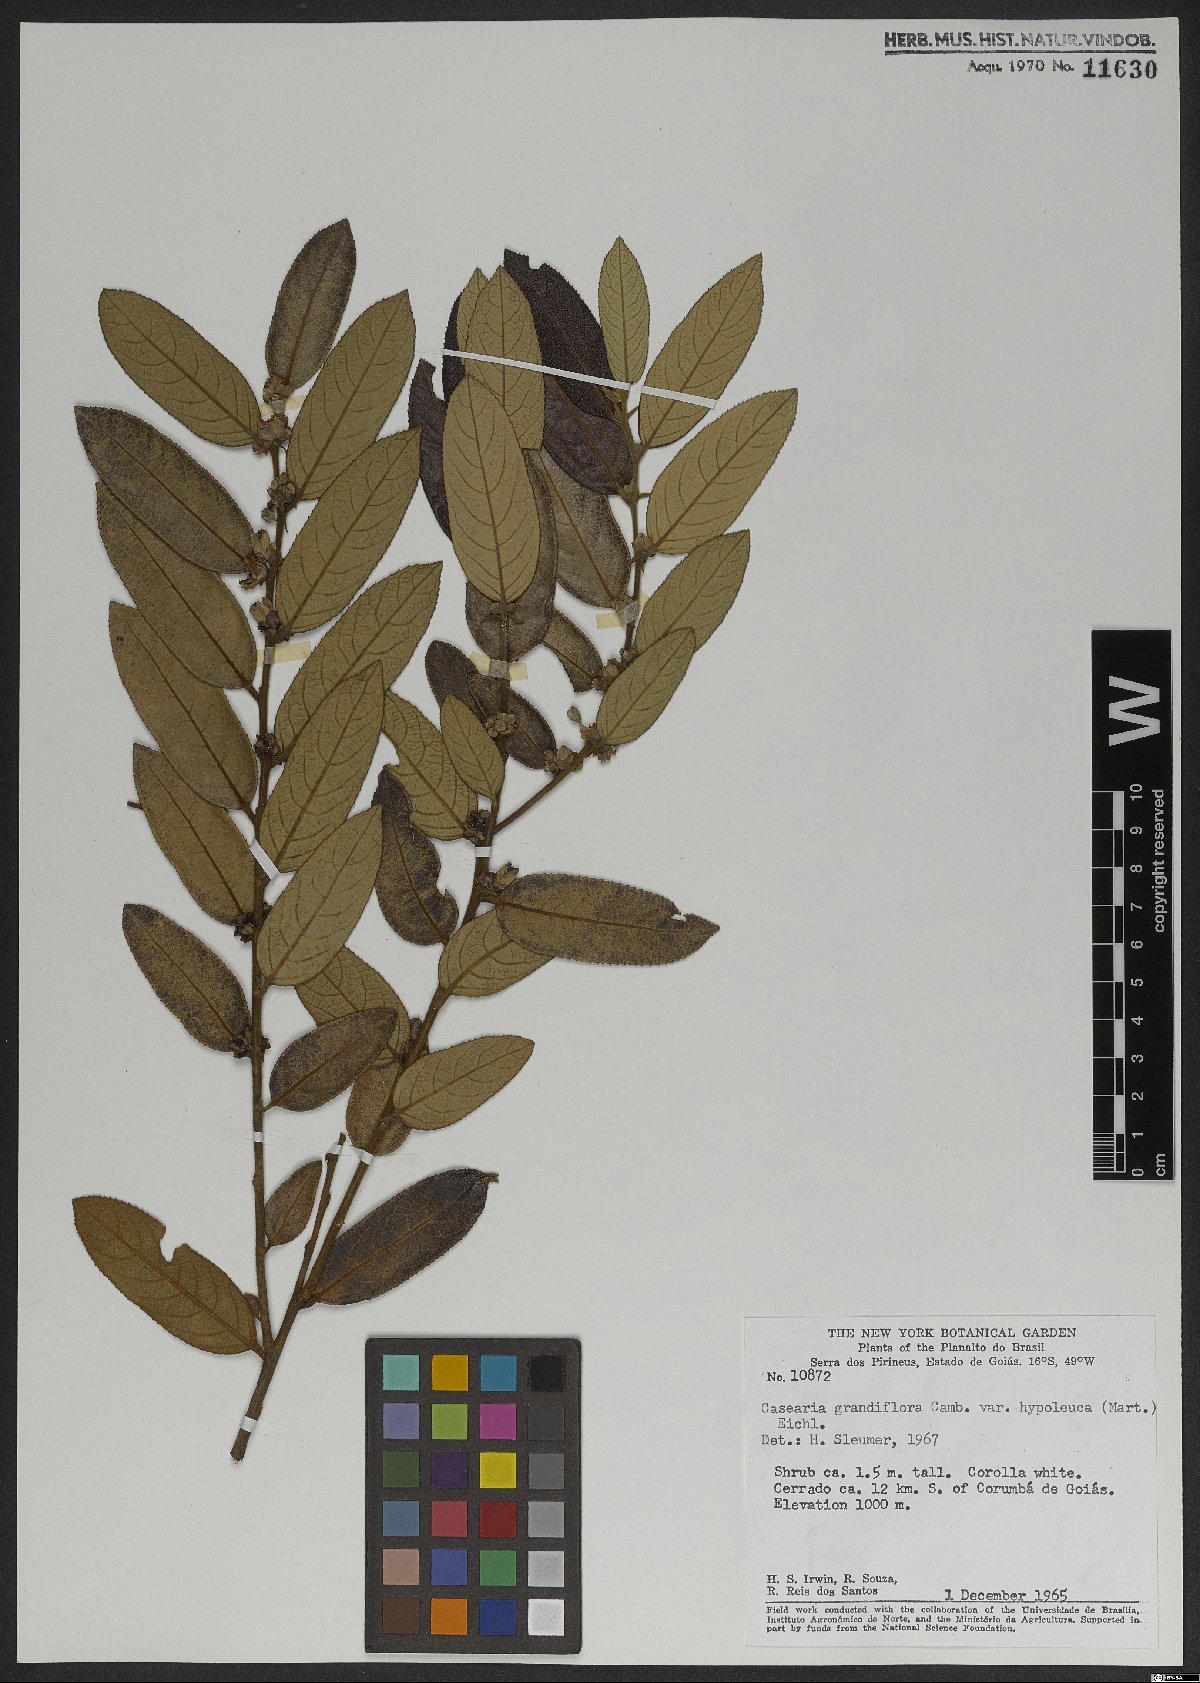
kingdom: Plantae
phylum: Tracheophyta
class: Magnoliopsida
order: Malpighiales
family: Salicaceae
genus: Casearia
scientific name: Casearia grandiflora
